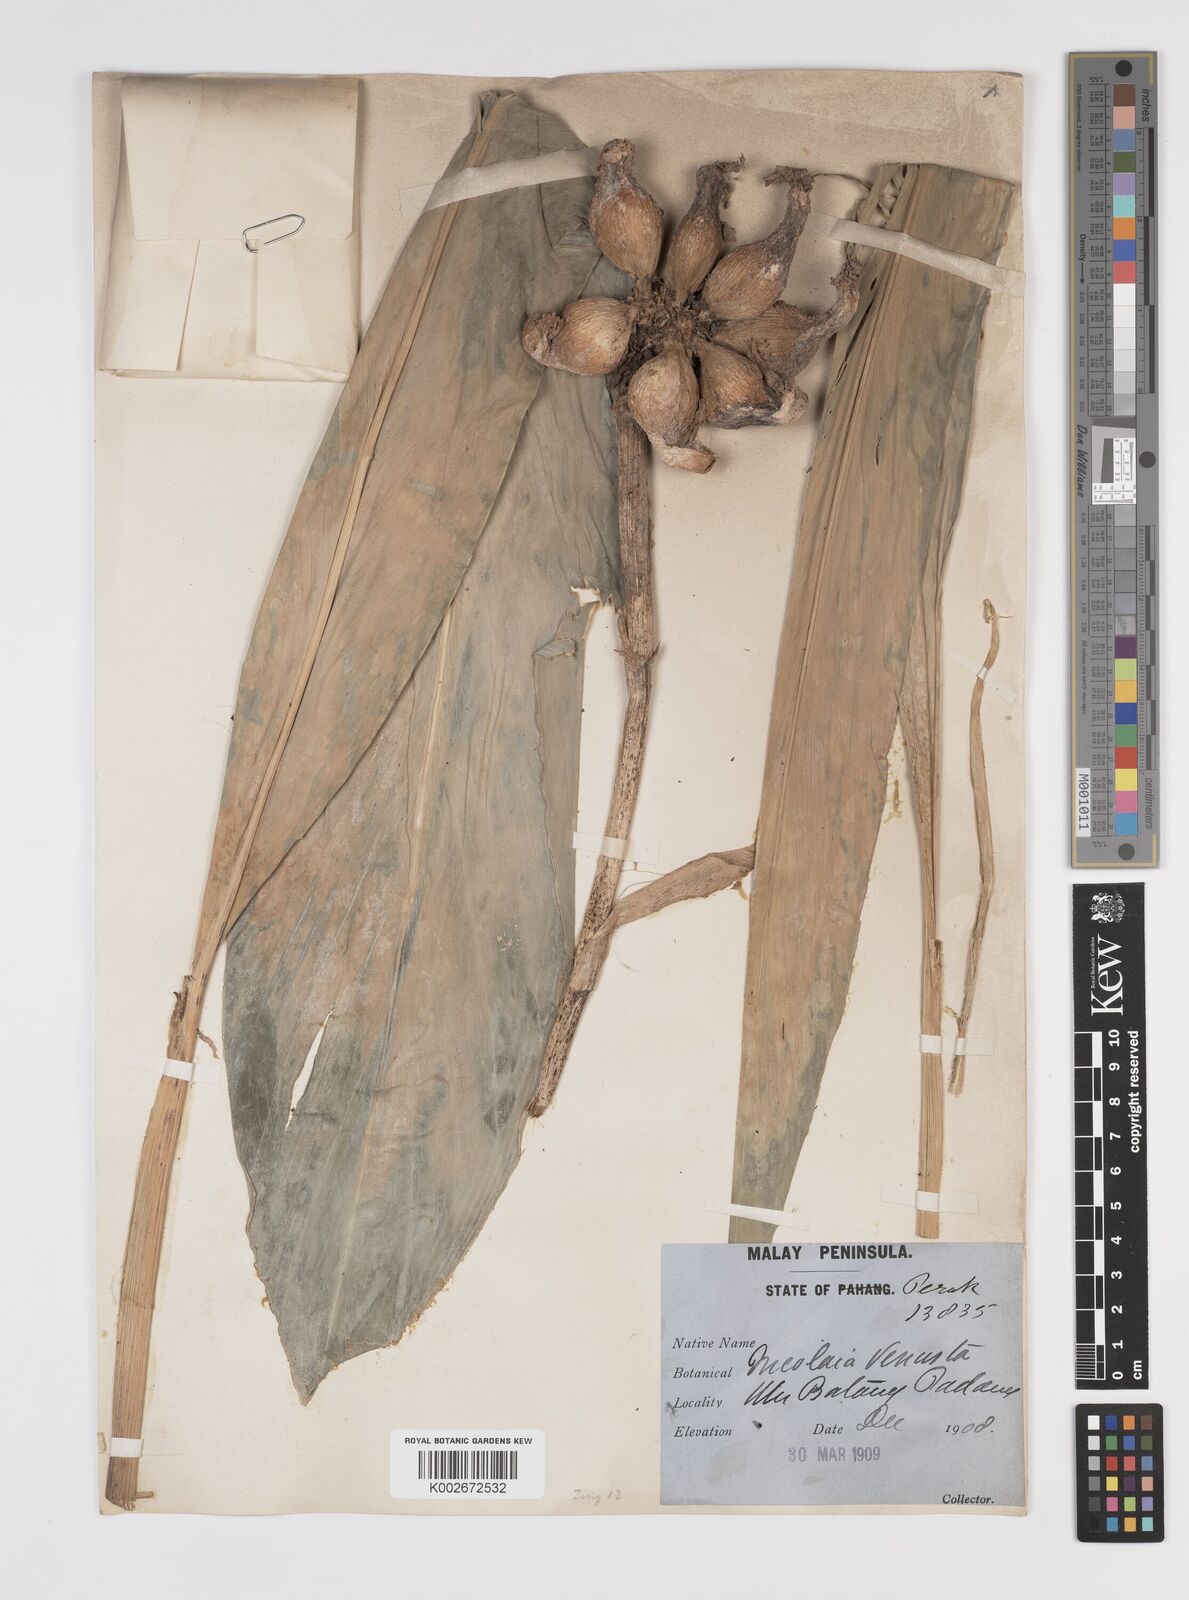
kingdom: Plantae
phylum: Tracheophyta
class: Liliopsida
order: Zingiberales
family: Zingiberaceae
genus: Etlingera
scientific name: Etlingera venusta
